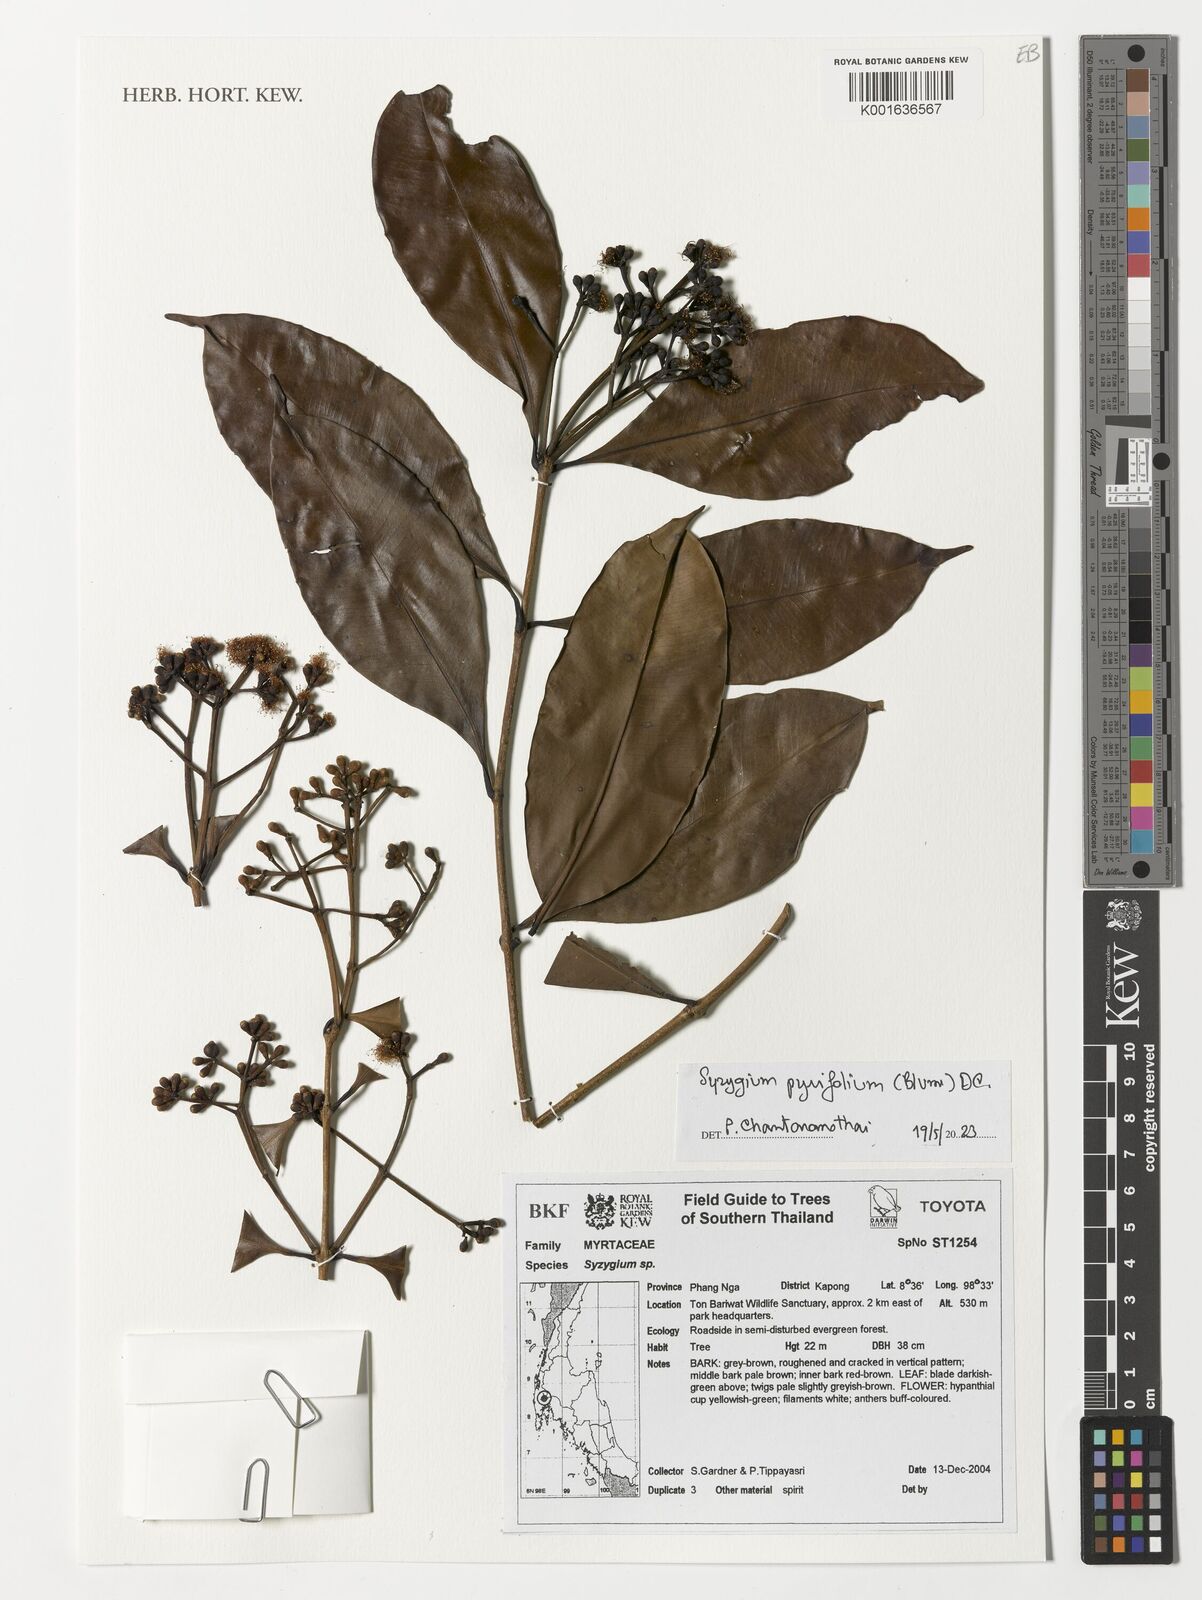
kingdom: Plantae
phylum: Tracheophyta
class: Magnoliopsida
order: Myrtales
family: Myrtaceae
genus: Syzygium
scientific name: Syzygium pyrifolium
